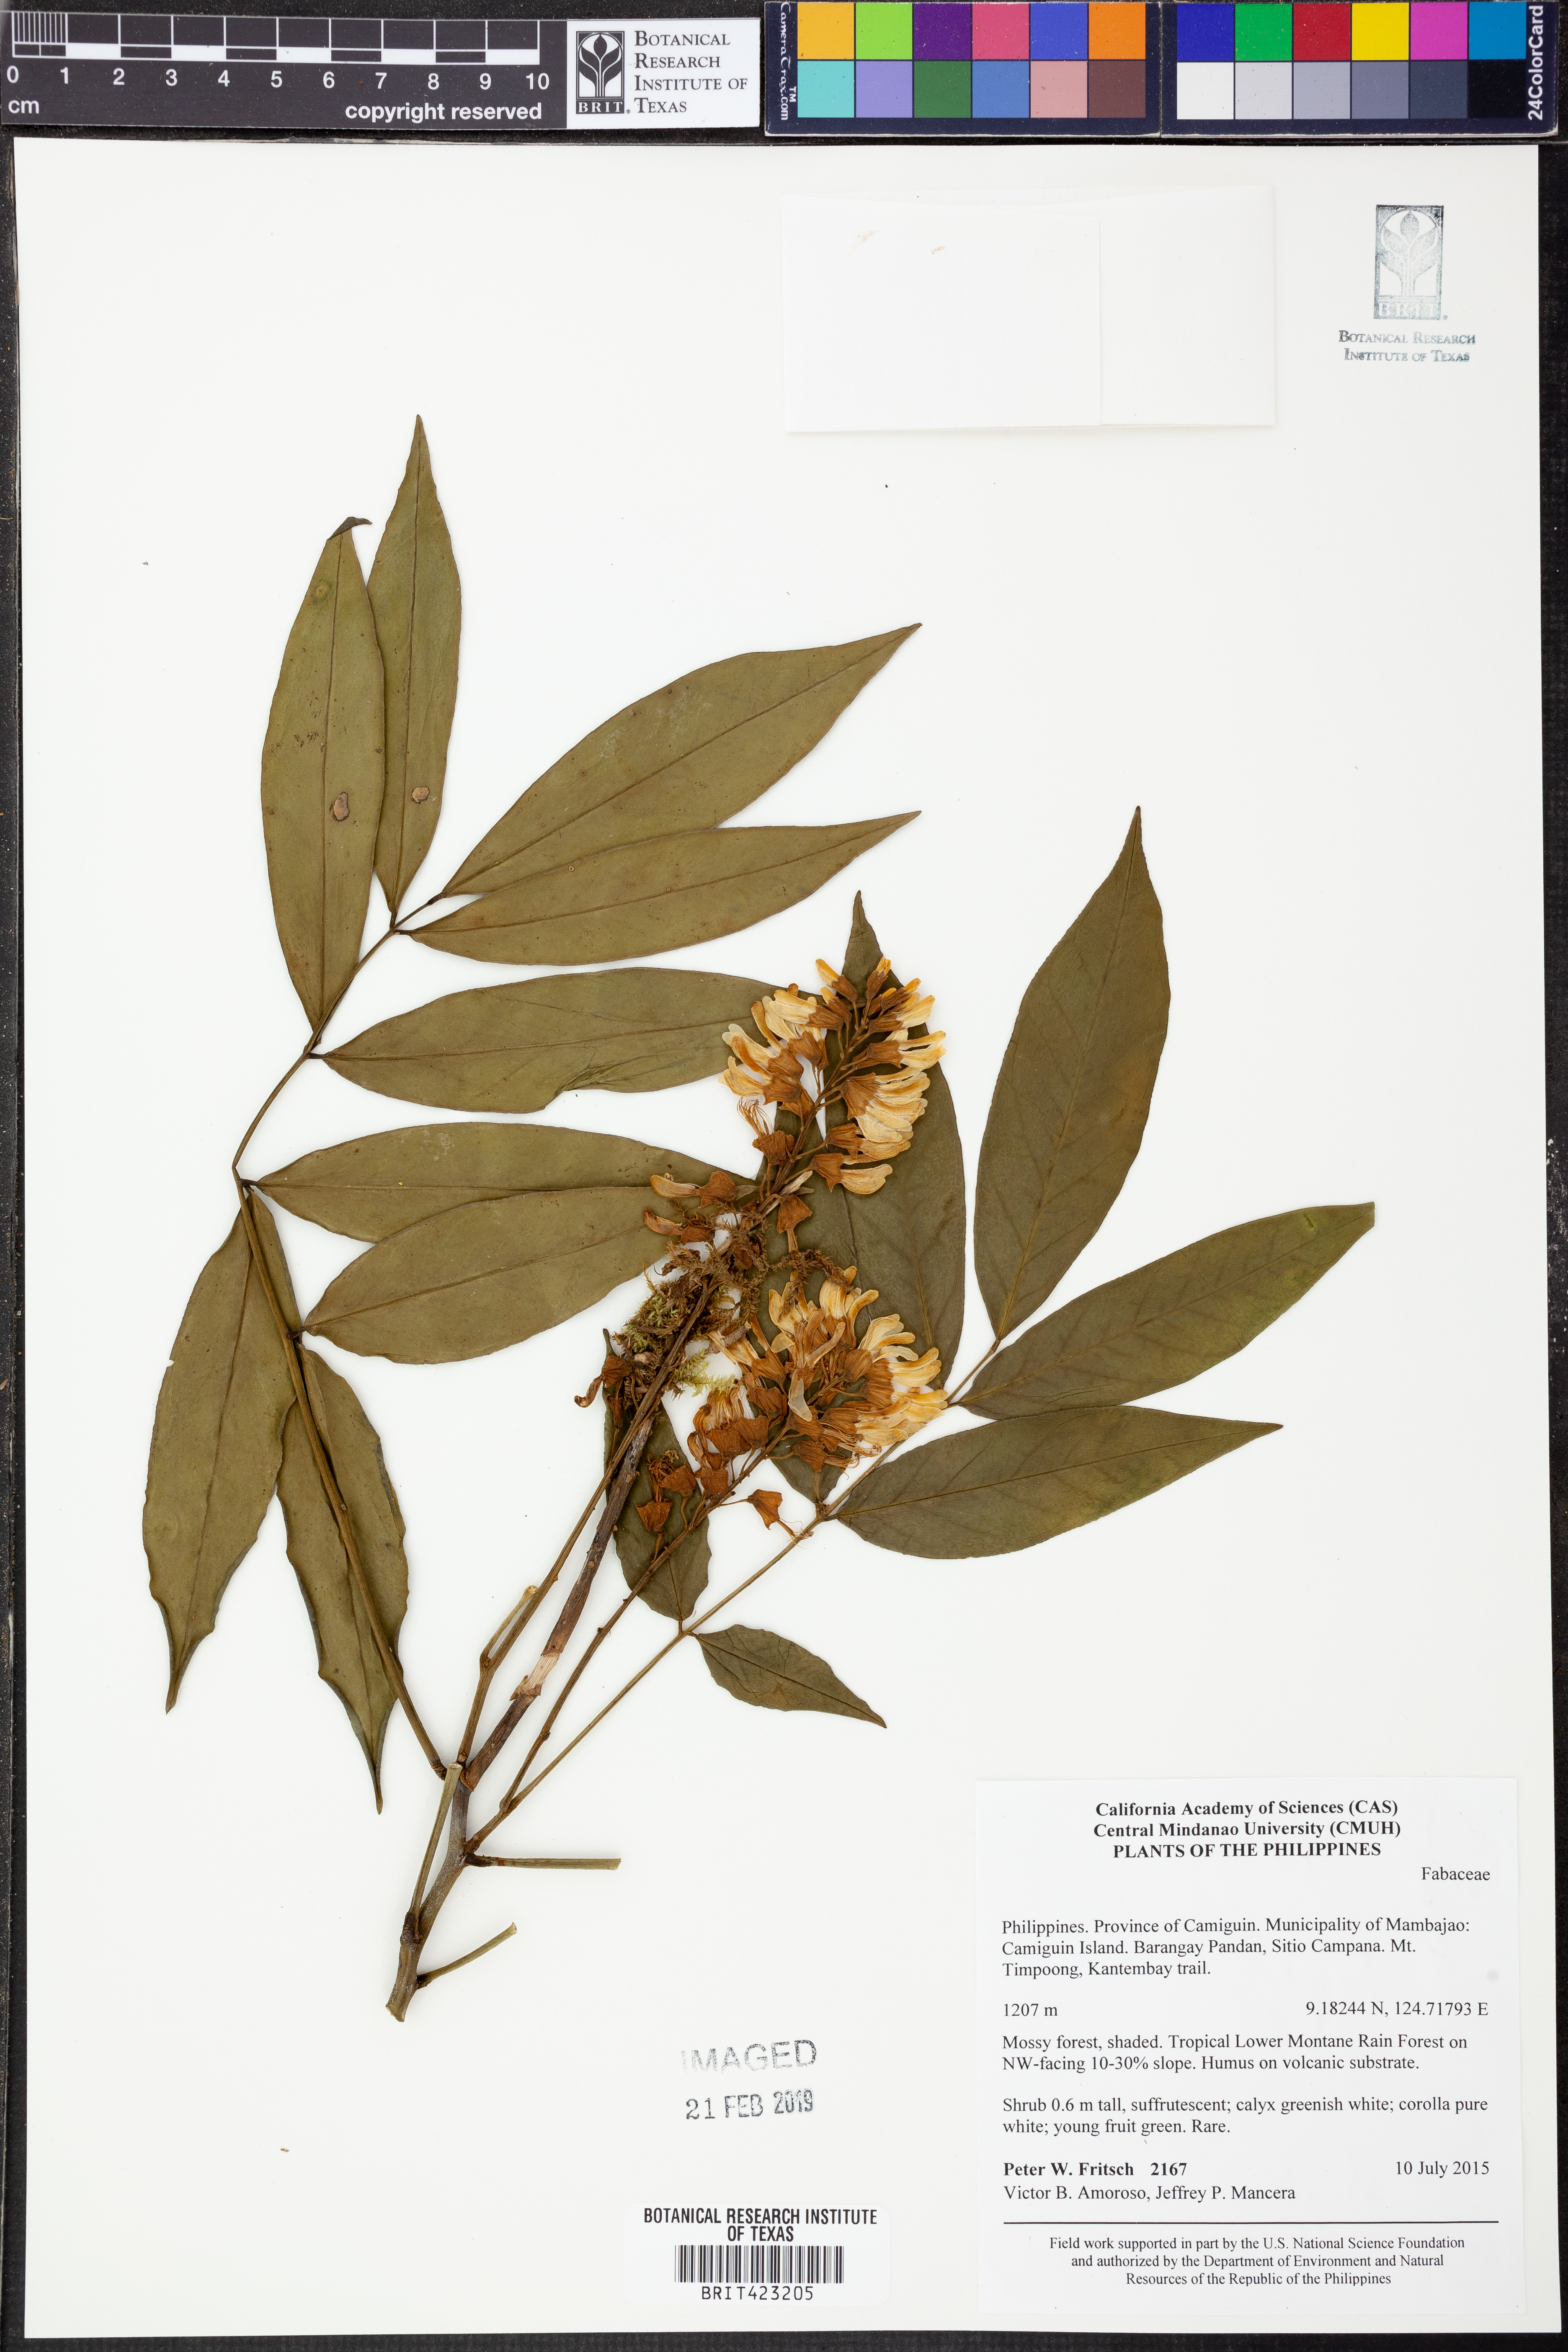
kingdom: Plantae
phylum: Tracheophyta
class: Magnoliopsida
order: Fabales
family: Fabaceae
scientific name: Fabaceae
